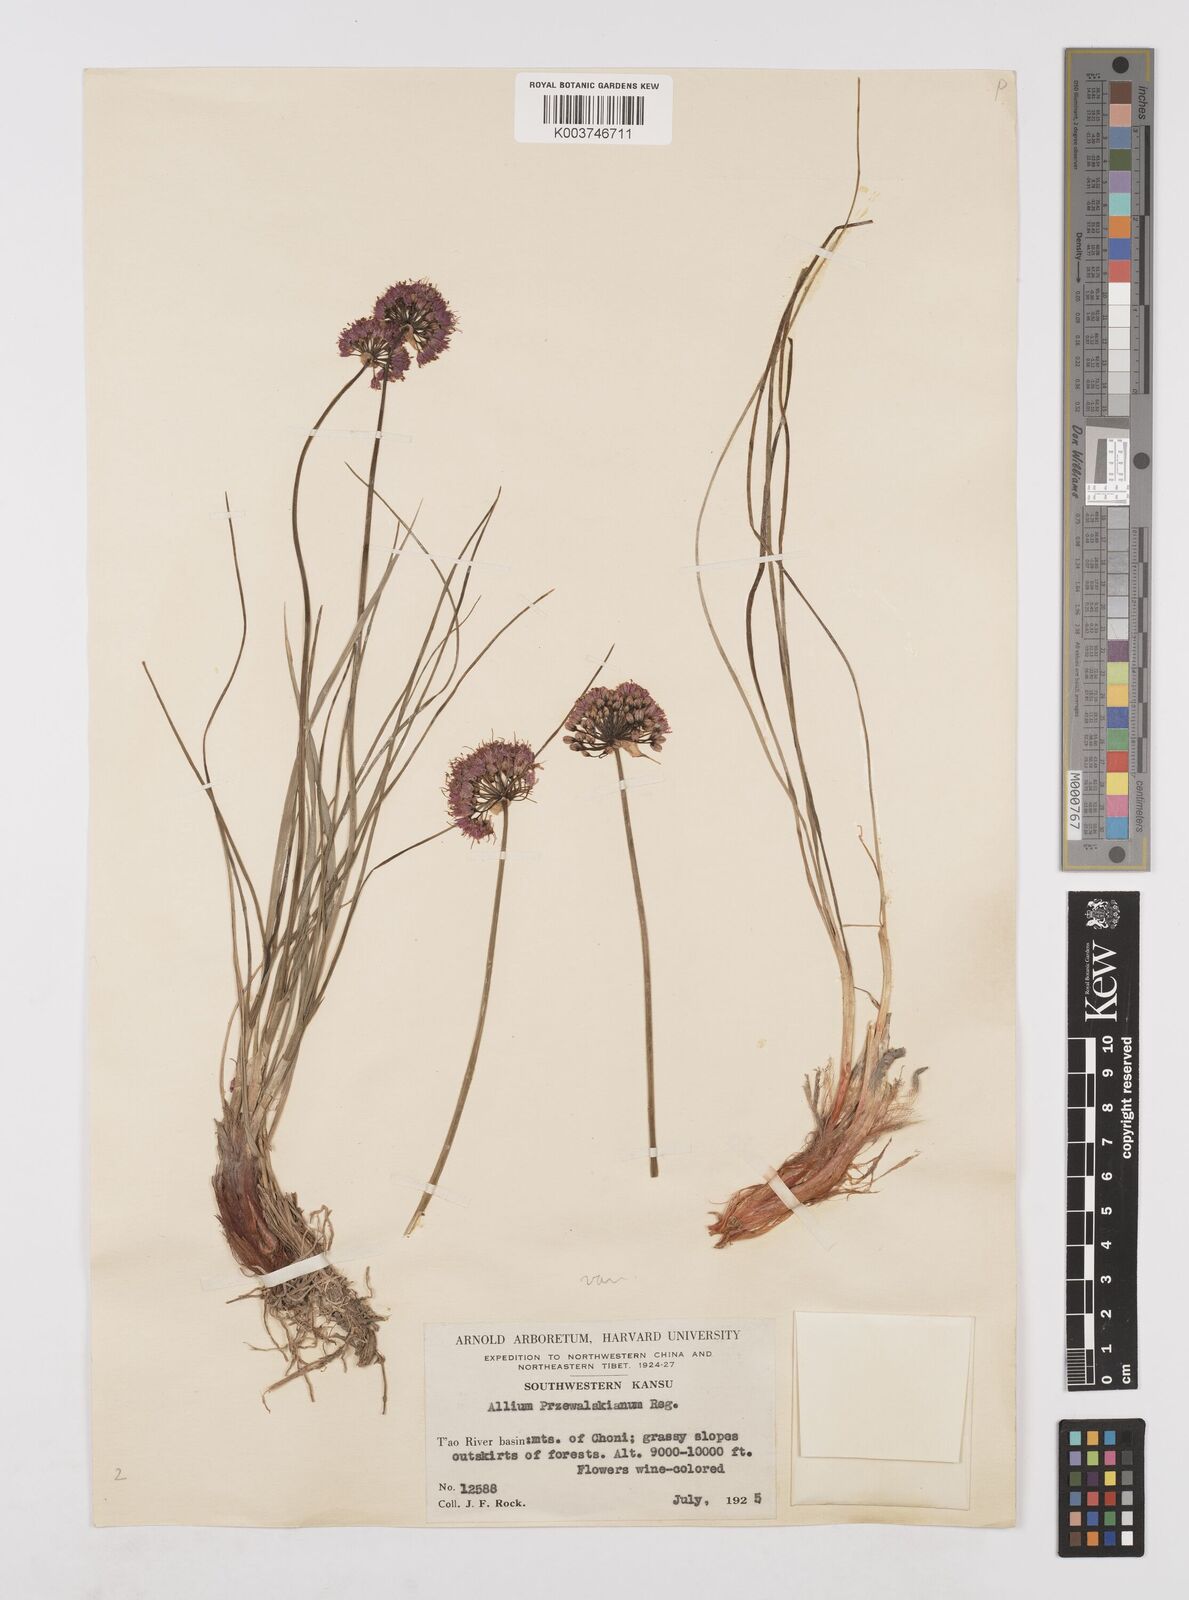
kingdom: Plantae
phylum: Tracheophyta
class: Liliopsida
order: Asparagales
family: Amaryllidaceae
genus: Allium
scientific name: Allium przewalskianum
